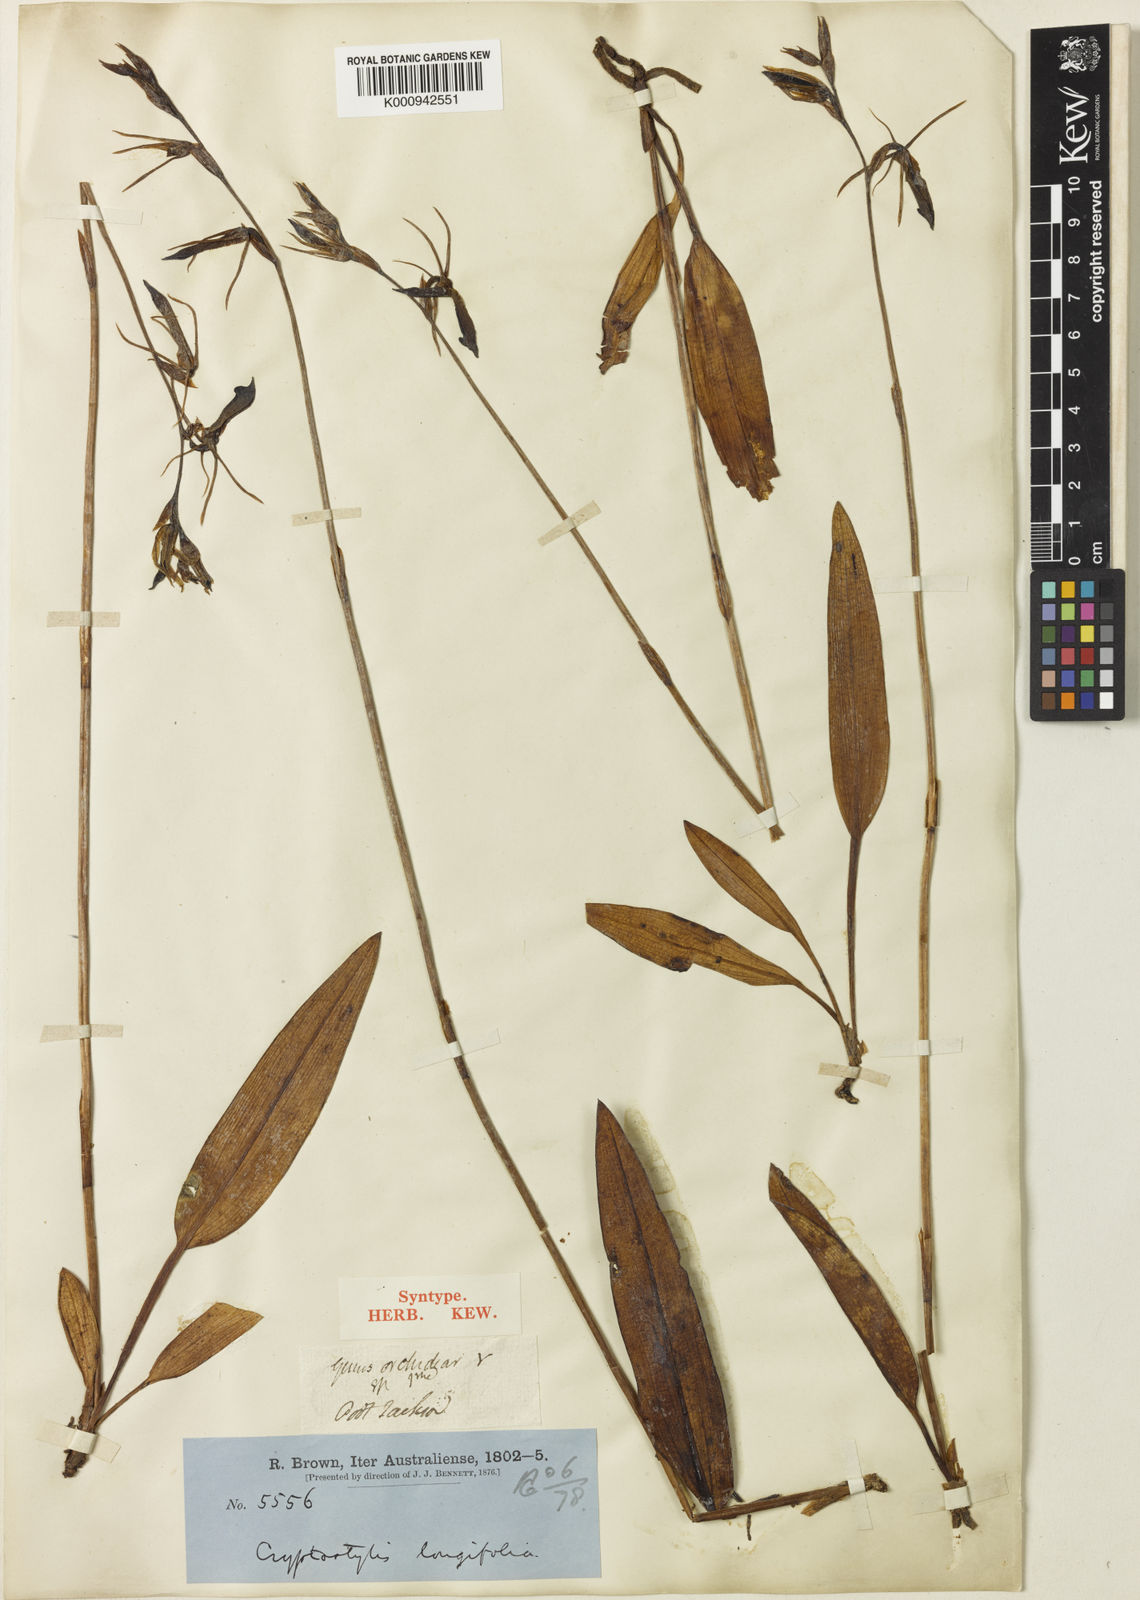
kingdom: Plantae
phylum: Tracheophyta
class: Liliopsida
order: Asparagales
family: Orchidaceae
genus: Cryptostylis
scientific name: Cryptostylis subulata
